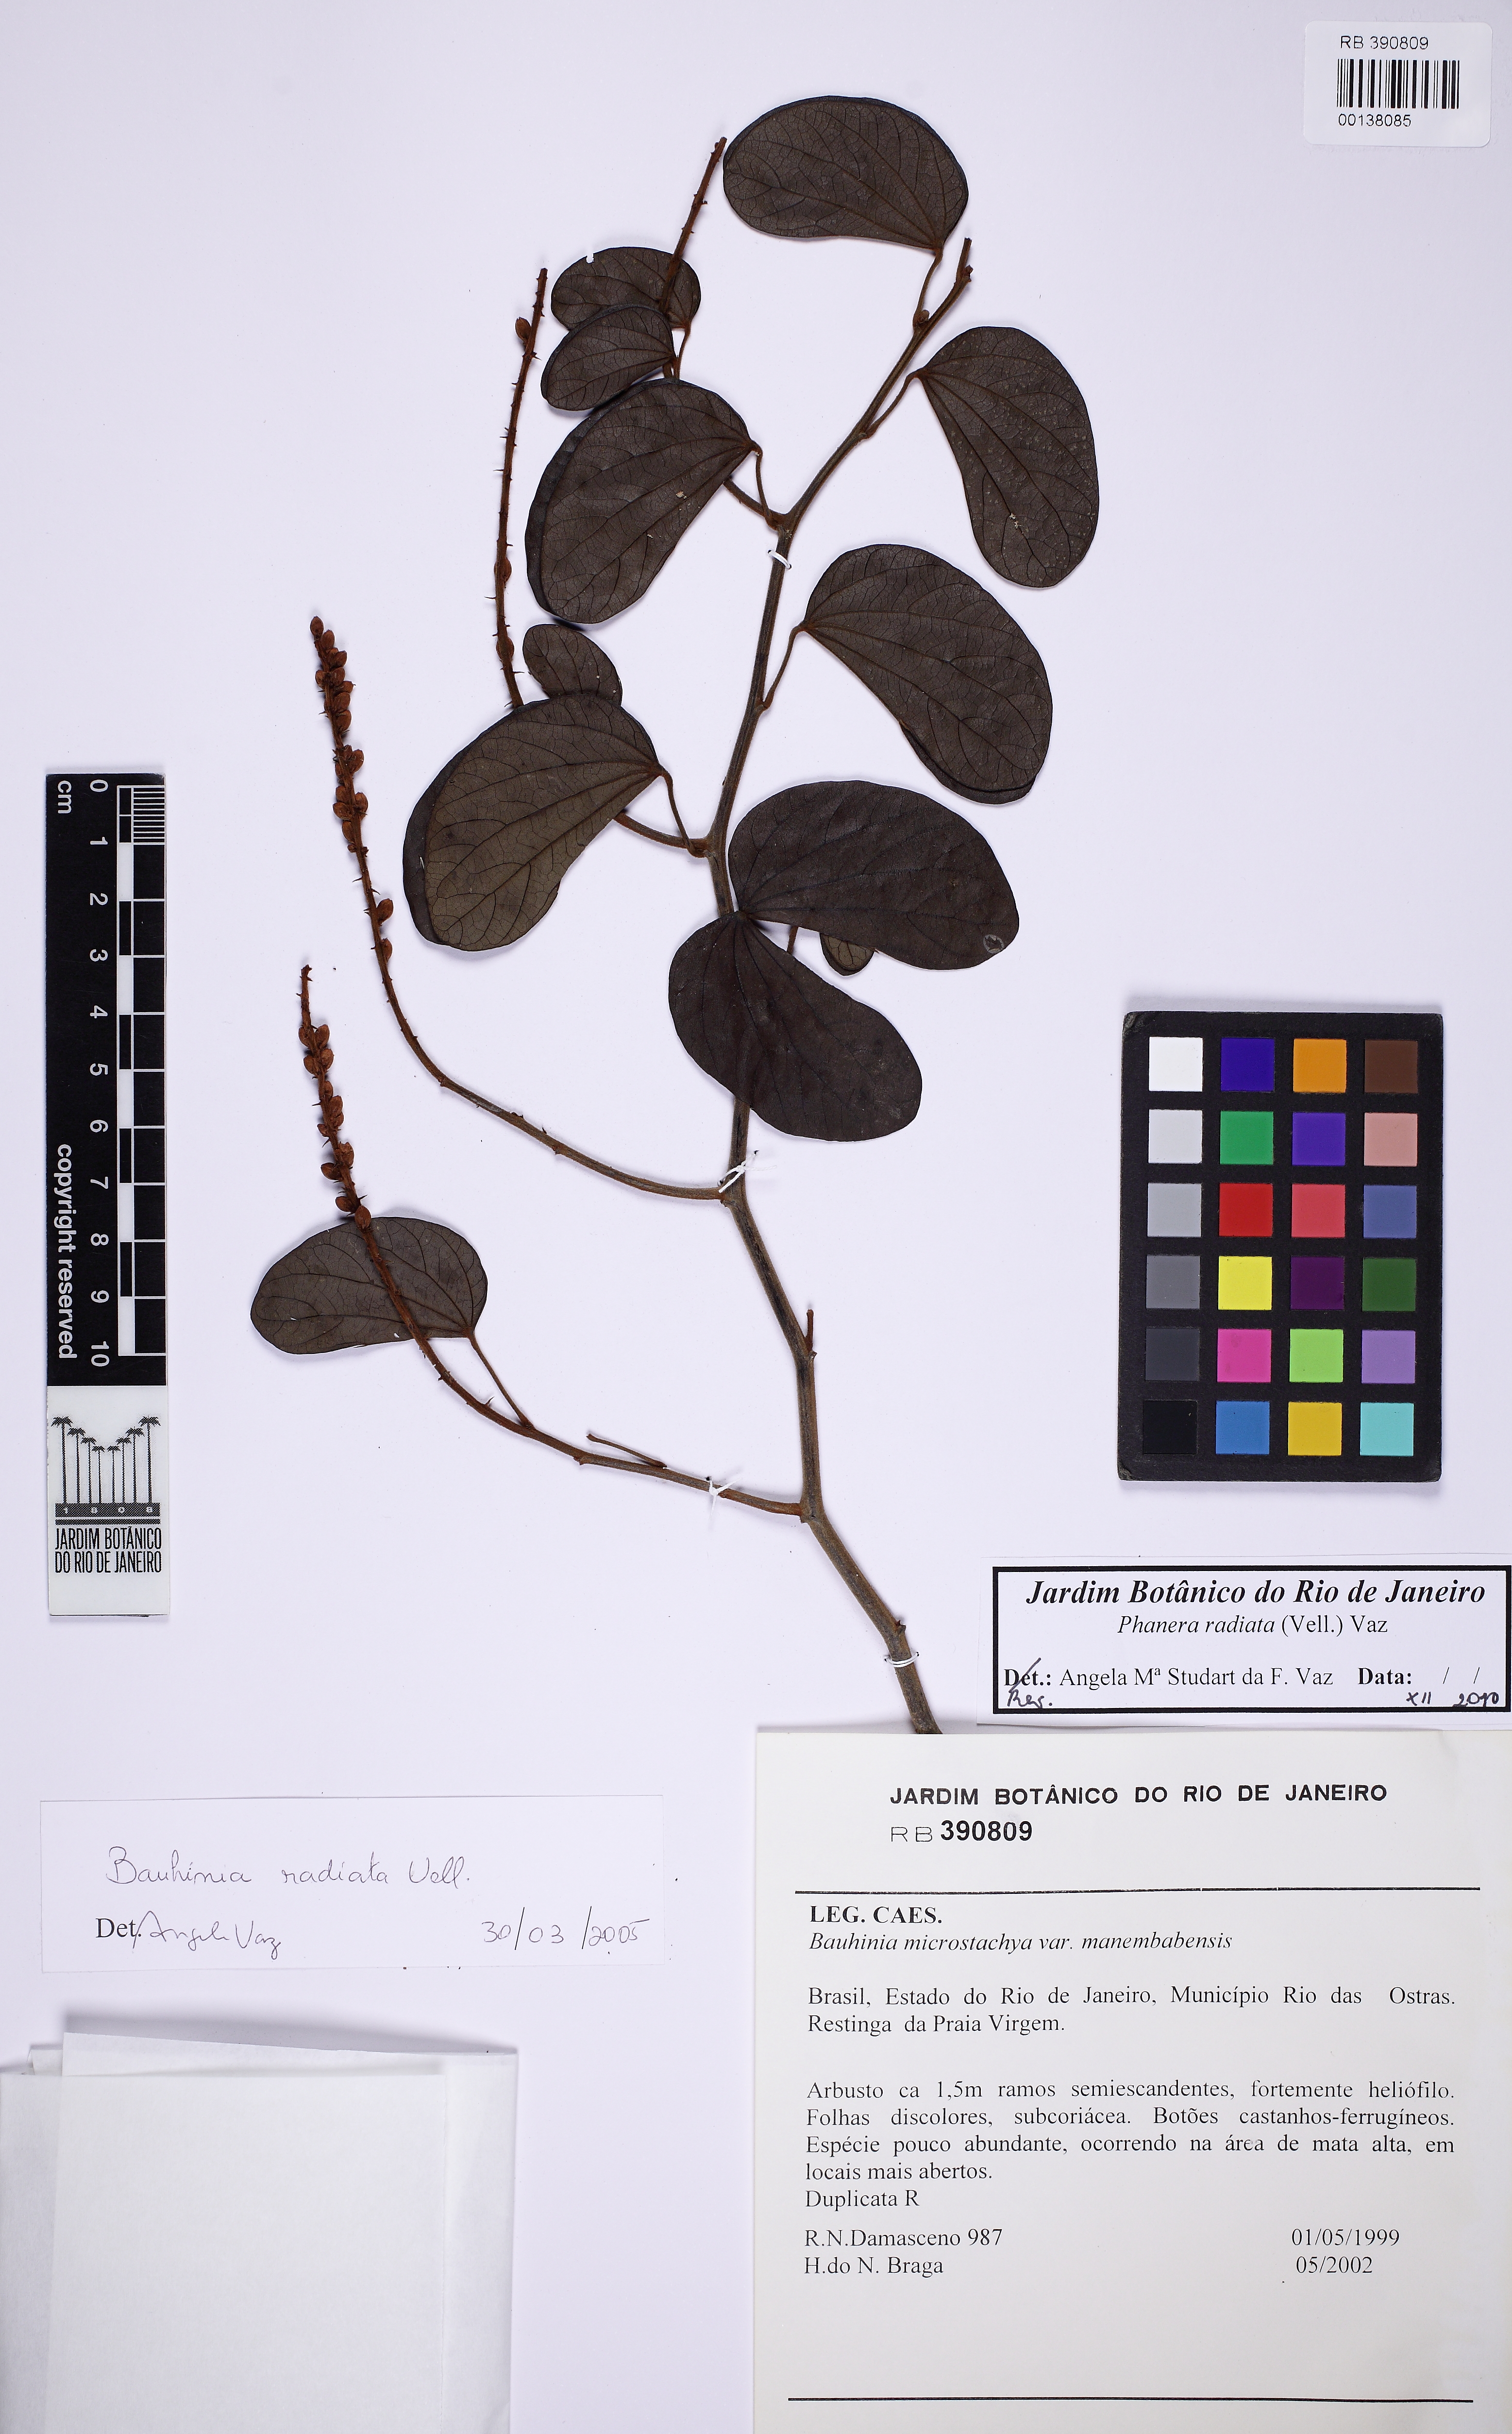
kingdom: Plantae
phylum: Tracheophyta
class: Magnoliopsida
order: Fabales
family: Fabaceae
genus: Schnella
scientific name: Schnella macrostachya
